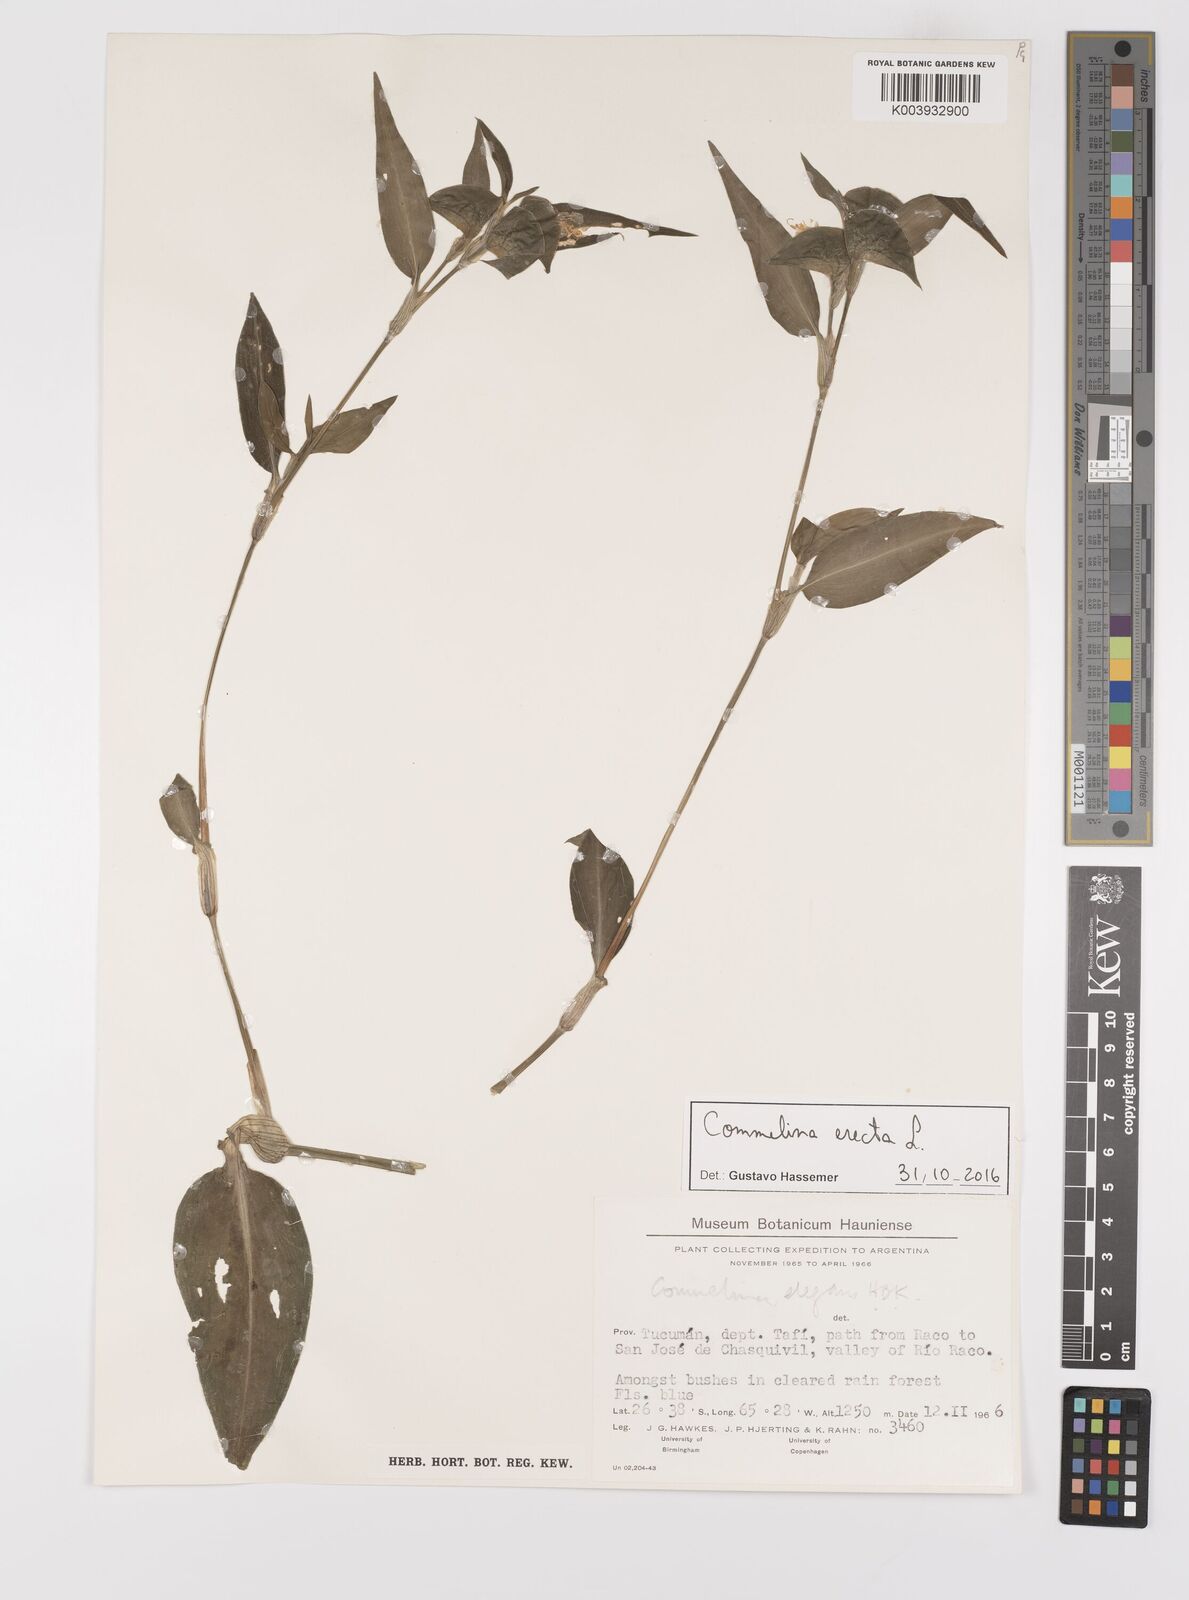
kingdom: Plantae
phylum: Tracheophyta
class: Liliopsida
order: Commelinales
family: Commelinaceae
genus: Commelina
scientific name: Commelina erecta
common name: Blousel blommetjie
